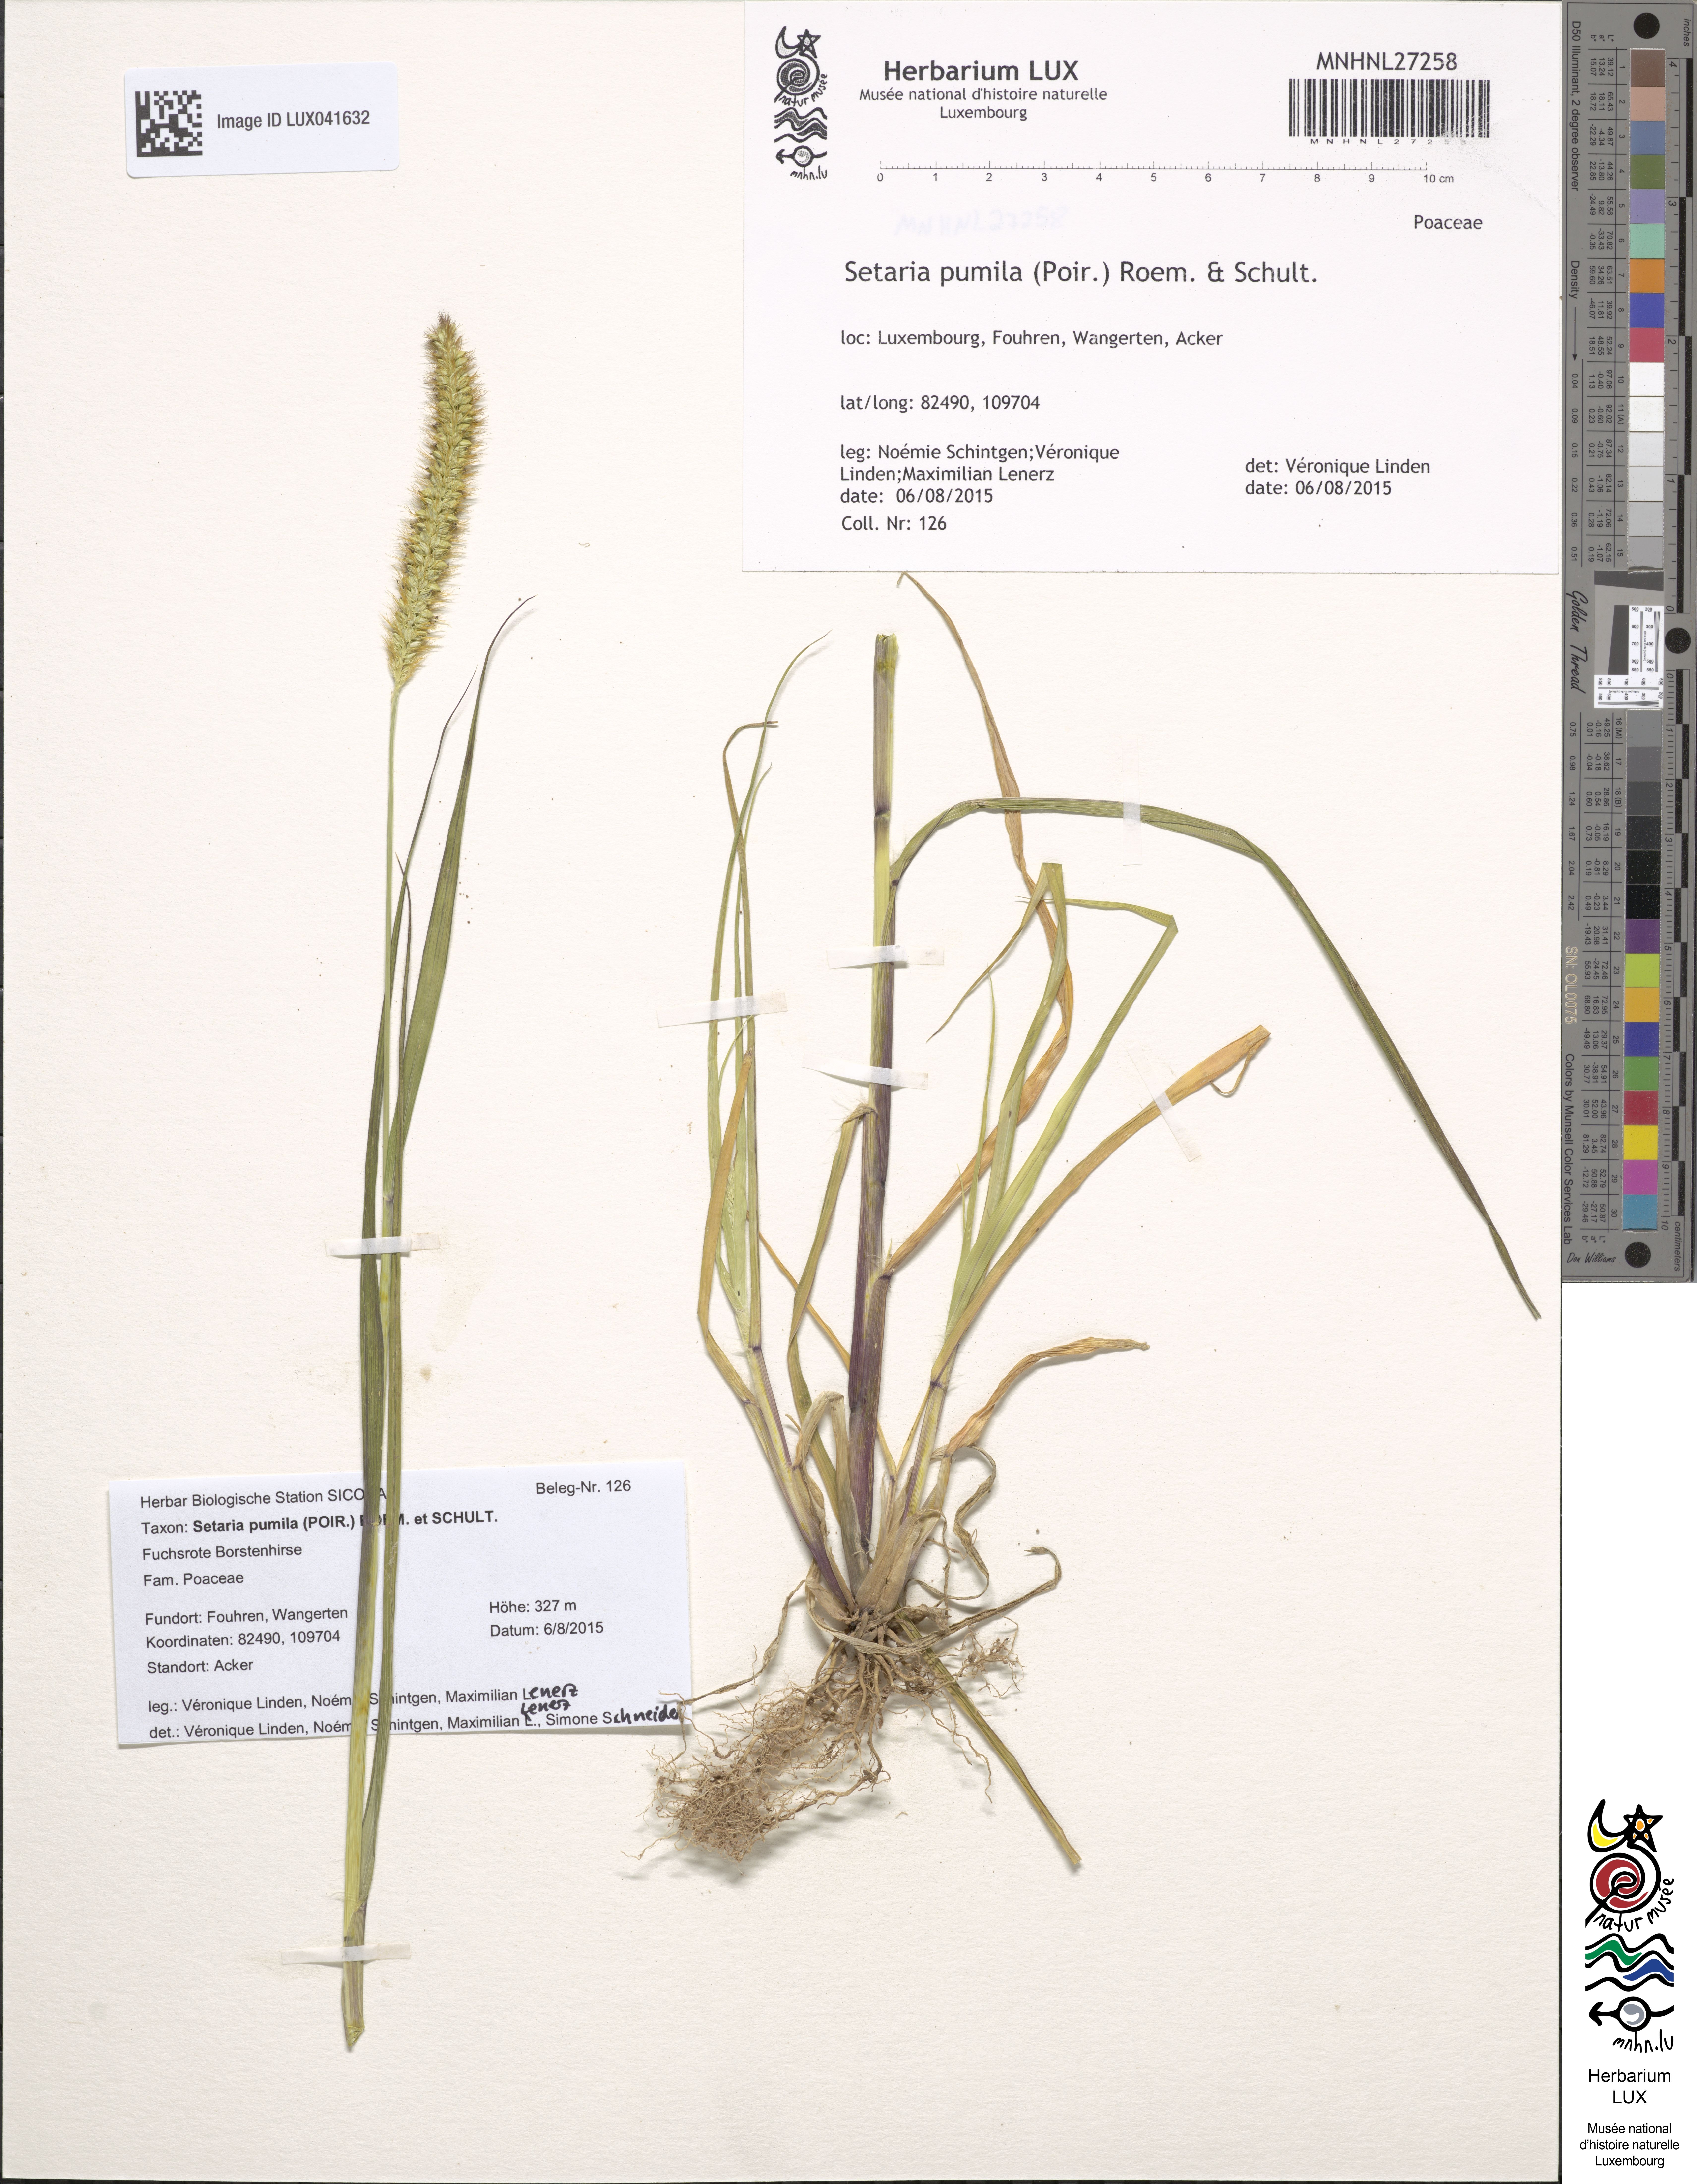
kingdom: Plantae
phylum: Tracheophyta
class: Liliopsida
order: Poales
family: Poaceae
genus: Setaria
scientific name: Setaria pumila
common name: Yellow bristle-grass
